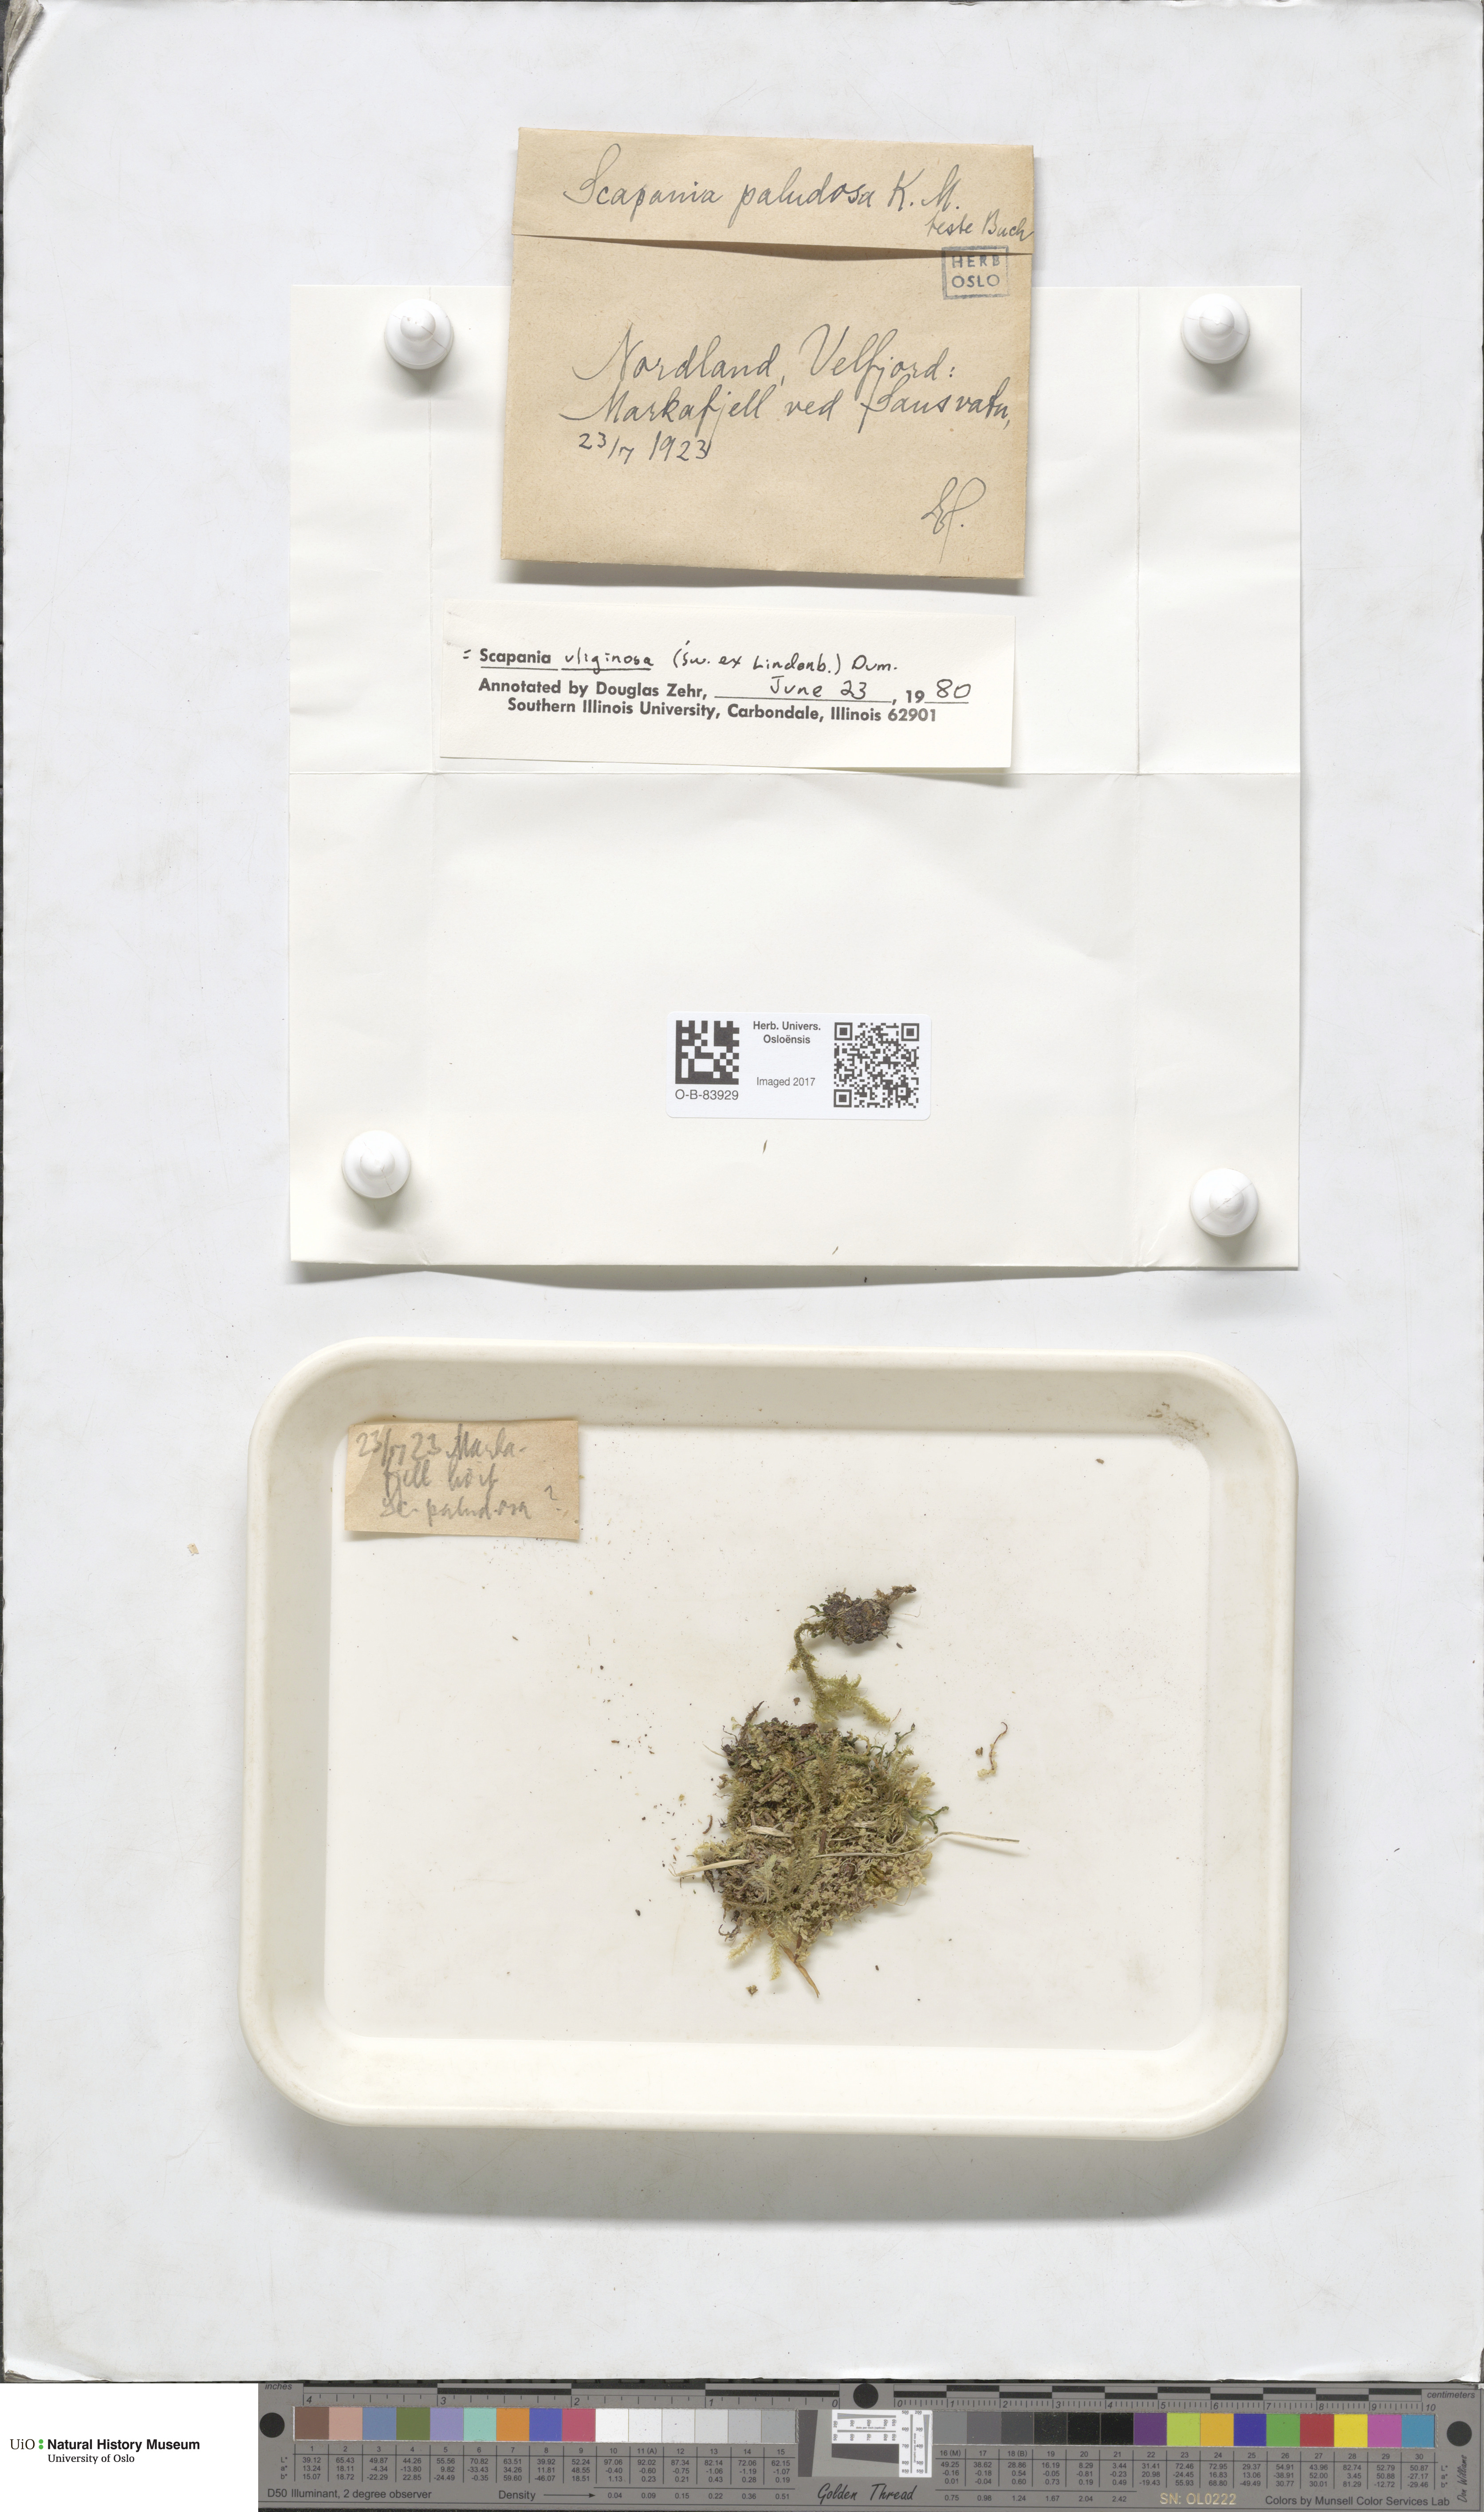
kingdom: Plantae
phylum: Marchantiophyta
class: Jungermanniopsida
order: Jungermanniales
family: Scapaniaceae
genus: Scapania
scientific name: Scapania uliginosa
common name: Marsh earwort
